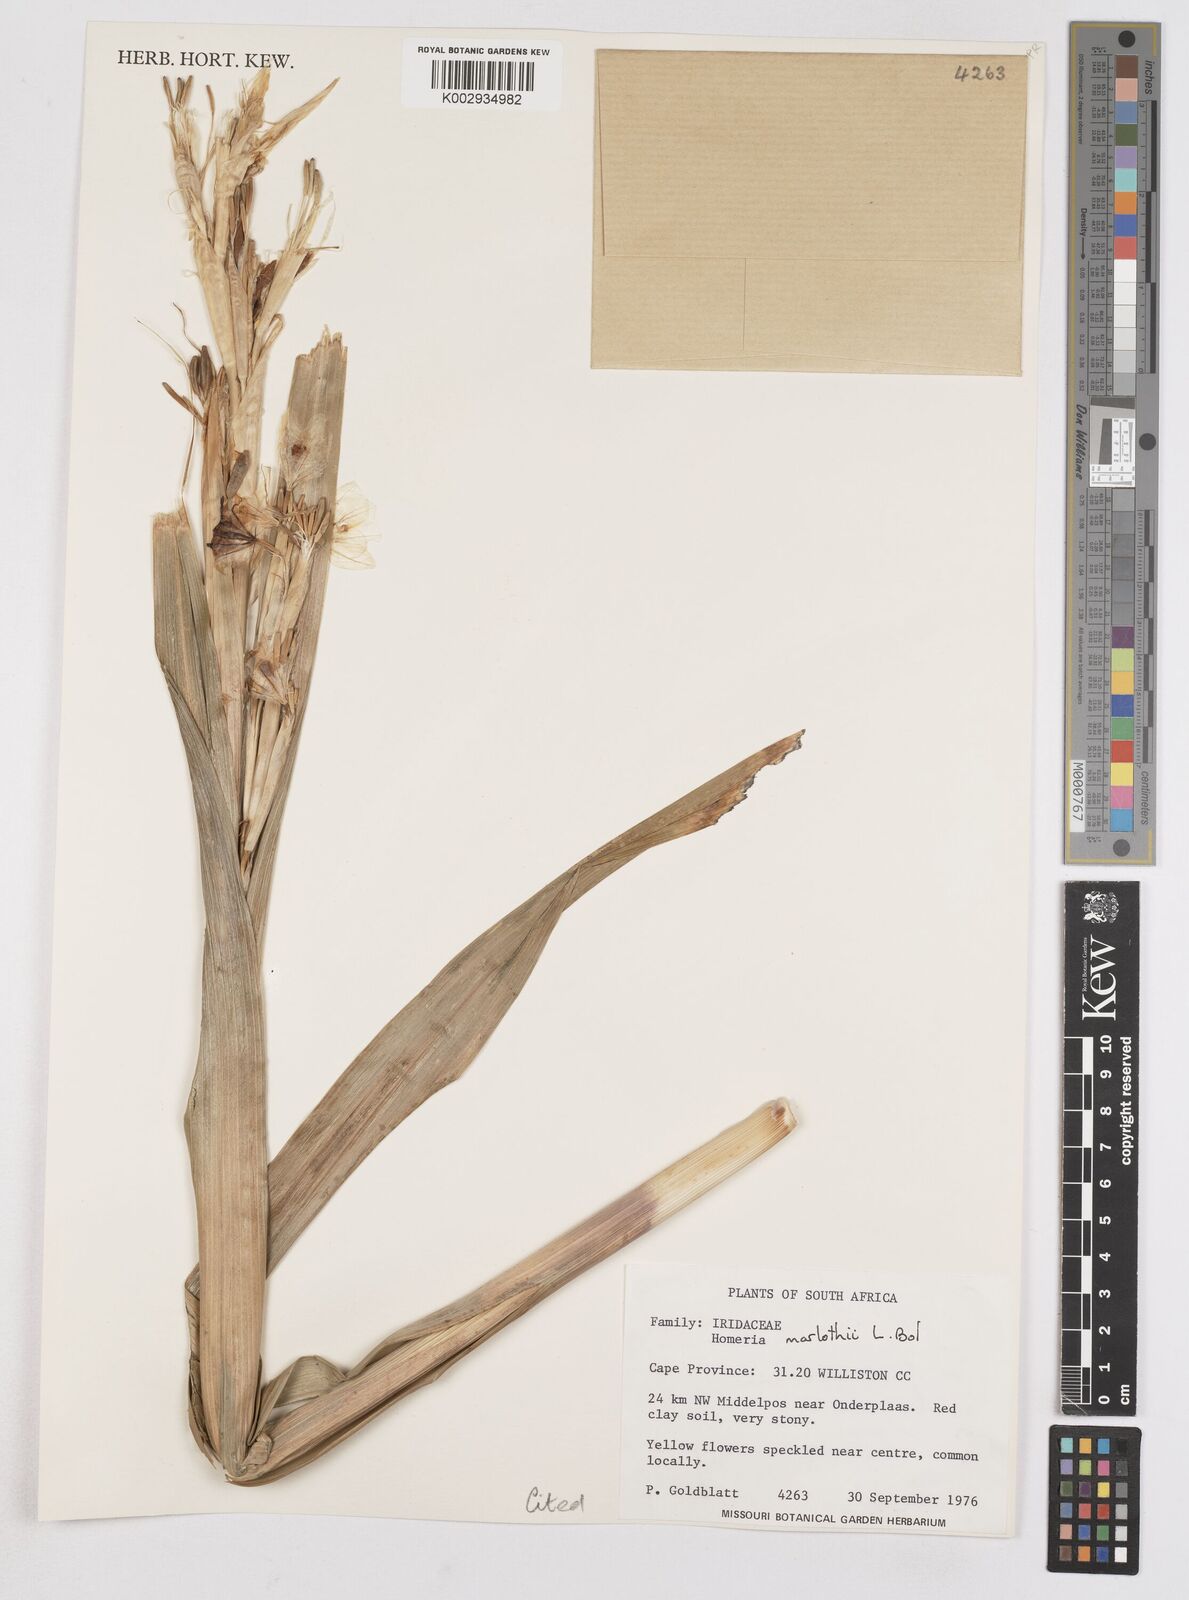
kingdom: Plantae
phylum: Tracheophyta
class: Liliopsida
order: Asparagales
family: Iridaceae
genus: Moraea
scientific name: Moraea marlothii
